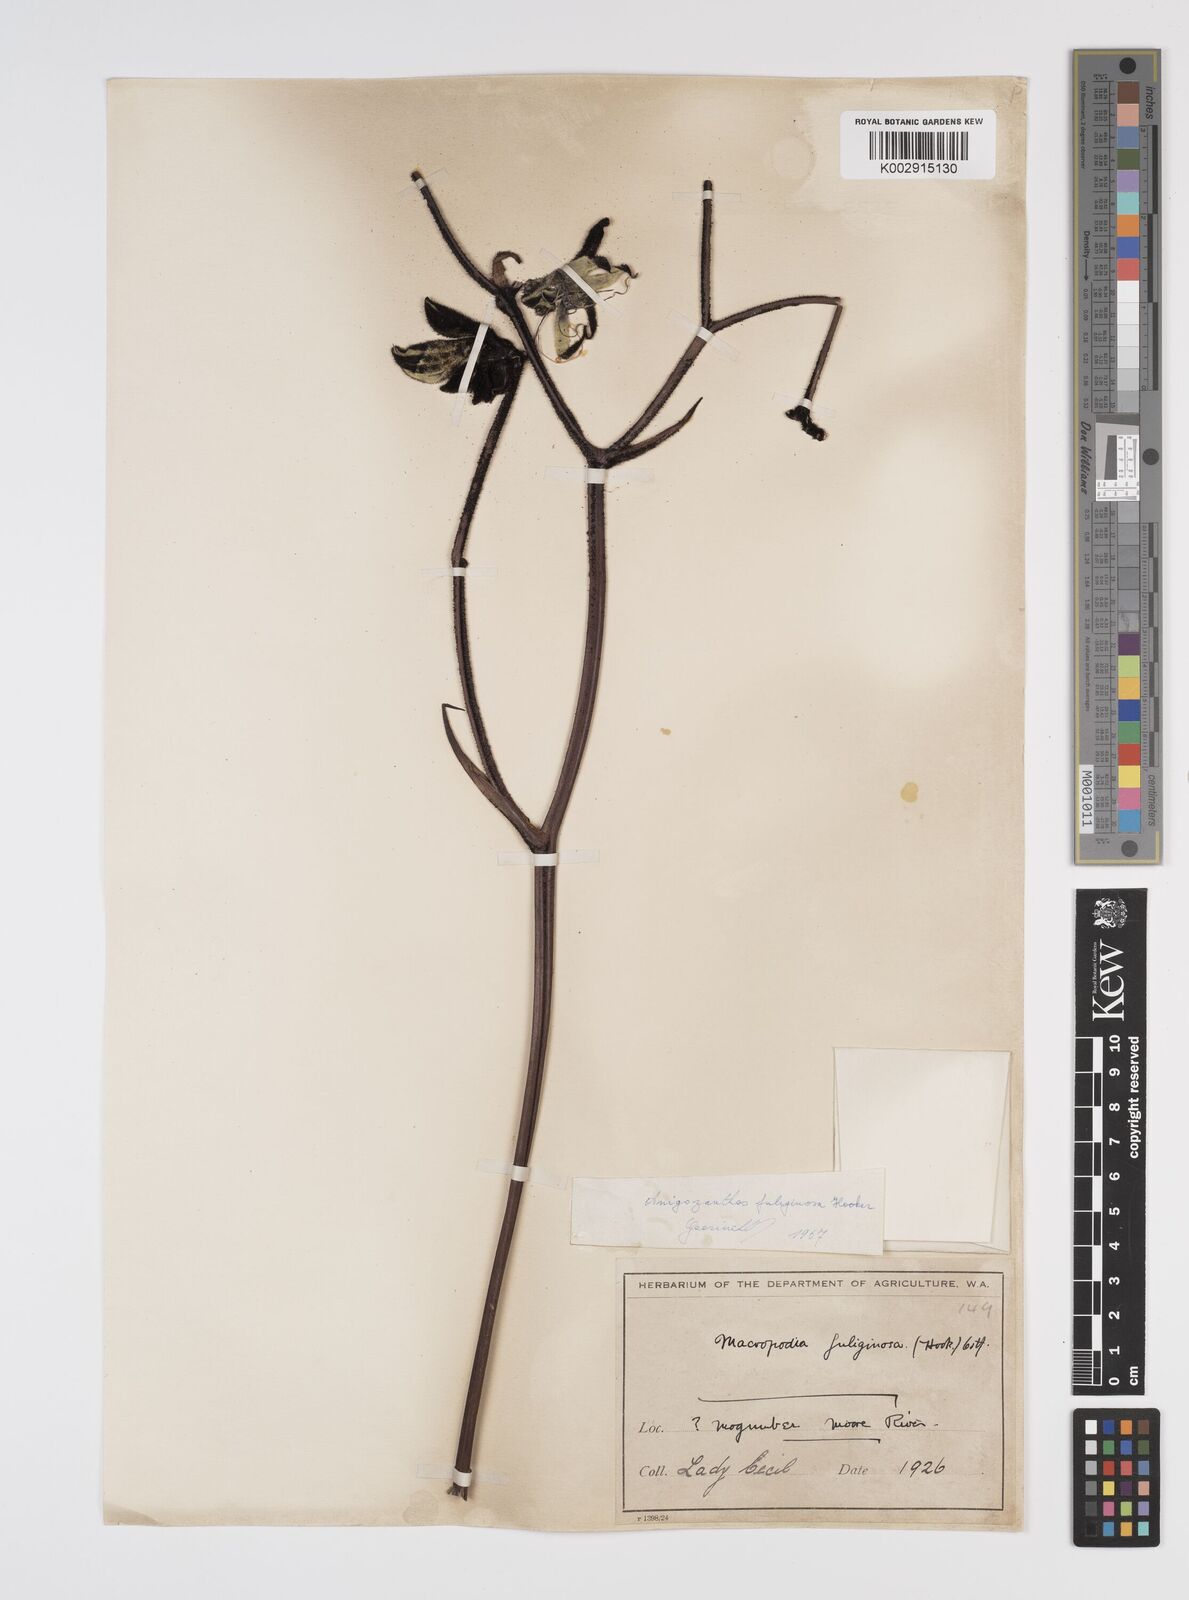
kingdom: Plantae
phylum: Tracheophyta
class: Liliopsida
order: Commelinales
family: Haemodoraceae
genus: Macropidia
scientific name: Macropidia fuliginosa
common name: Black kangaroo-paw
